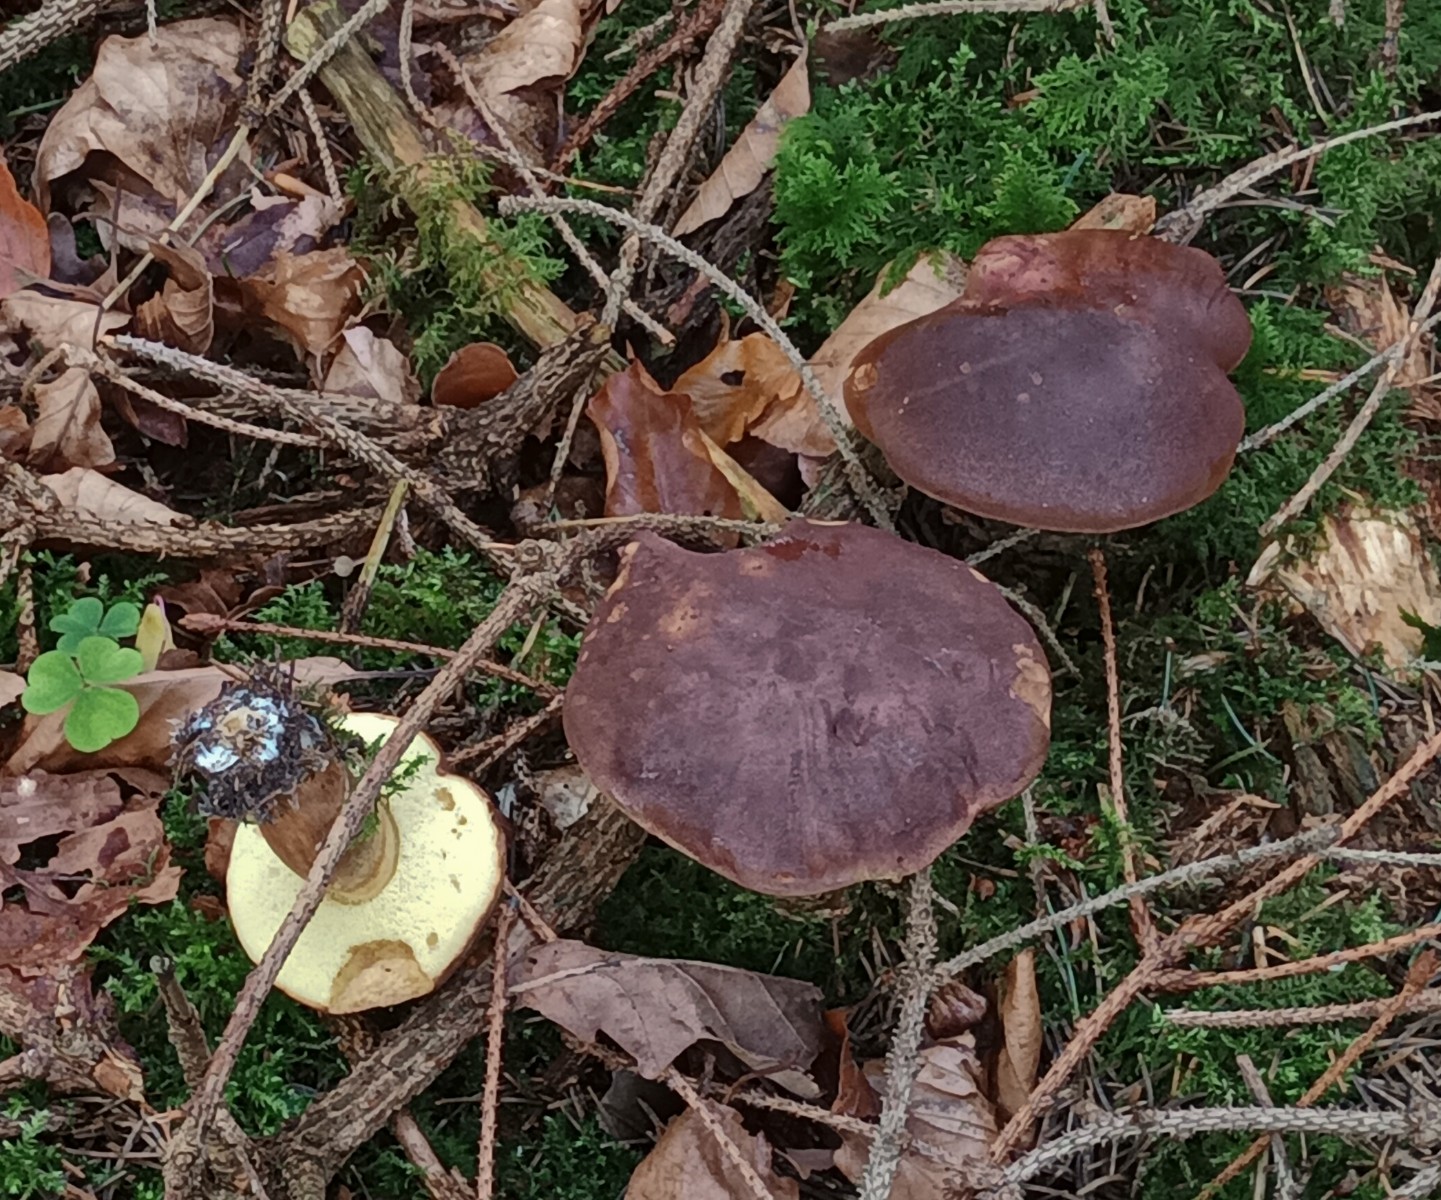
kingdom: Fungi
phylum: Basidiomycota
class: Agaricomycetes
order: Boletales
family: Boletaceae
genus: Imleria
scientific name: Imleria badia
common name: brunstokket rørhat
